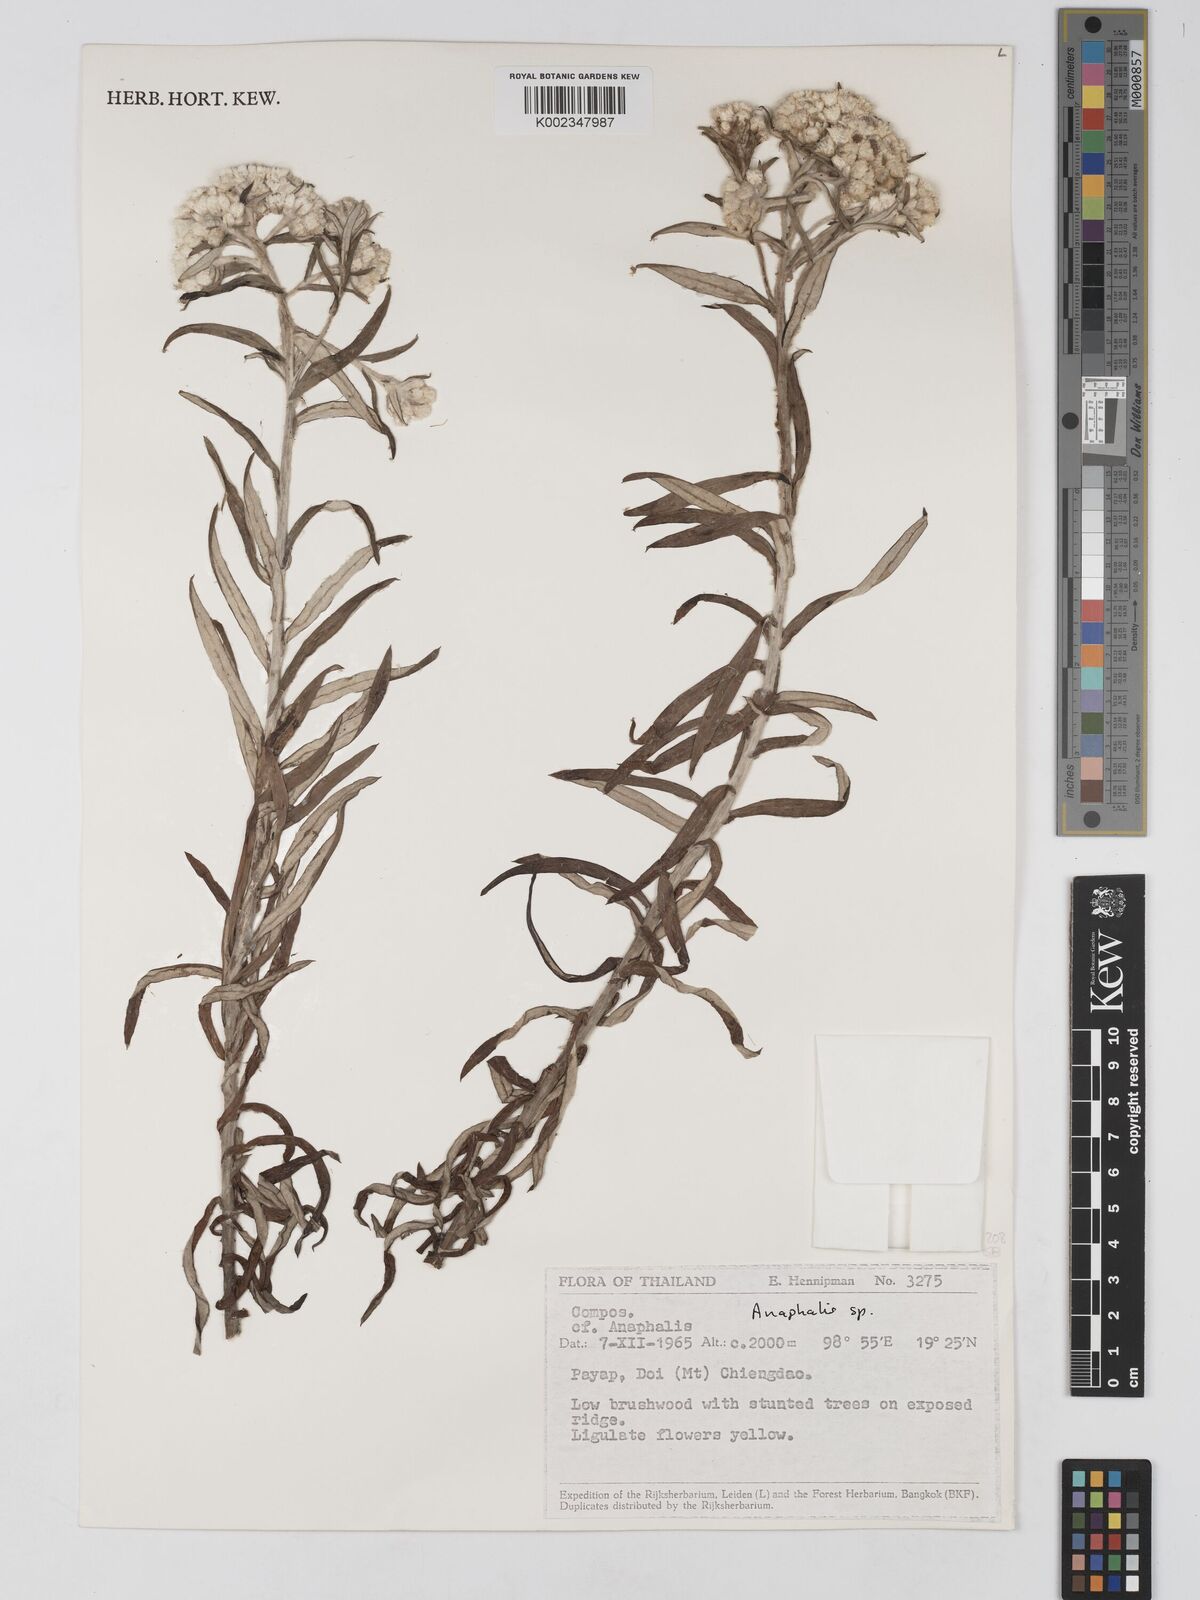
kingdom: Plantae
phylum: Tracheophyta
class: Magnoliopsida
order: Asterales
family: Asteraceae
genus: Anaphalis
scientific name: Anaphalis
